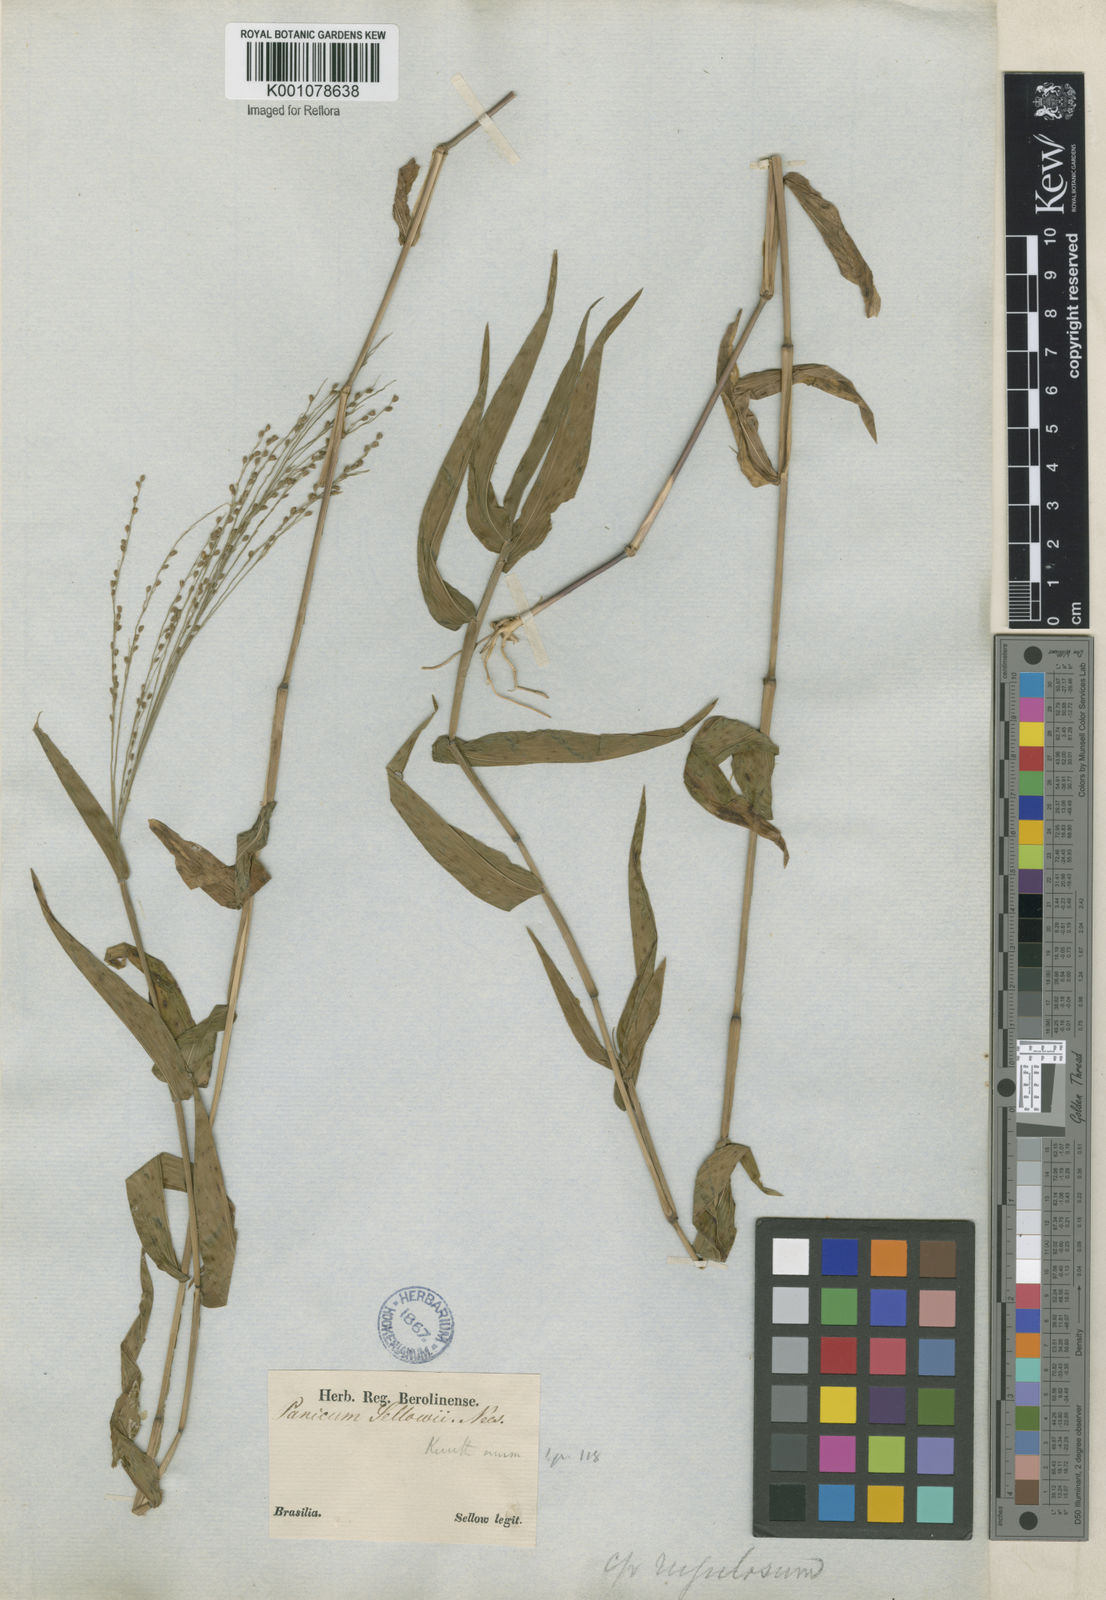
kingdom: Plantae
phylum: Tracheophyta
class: Liliopsida
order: Poales
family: Poaceae
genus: Panicum
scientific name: Panicum millegrana
